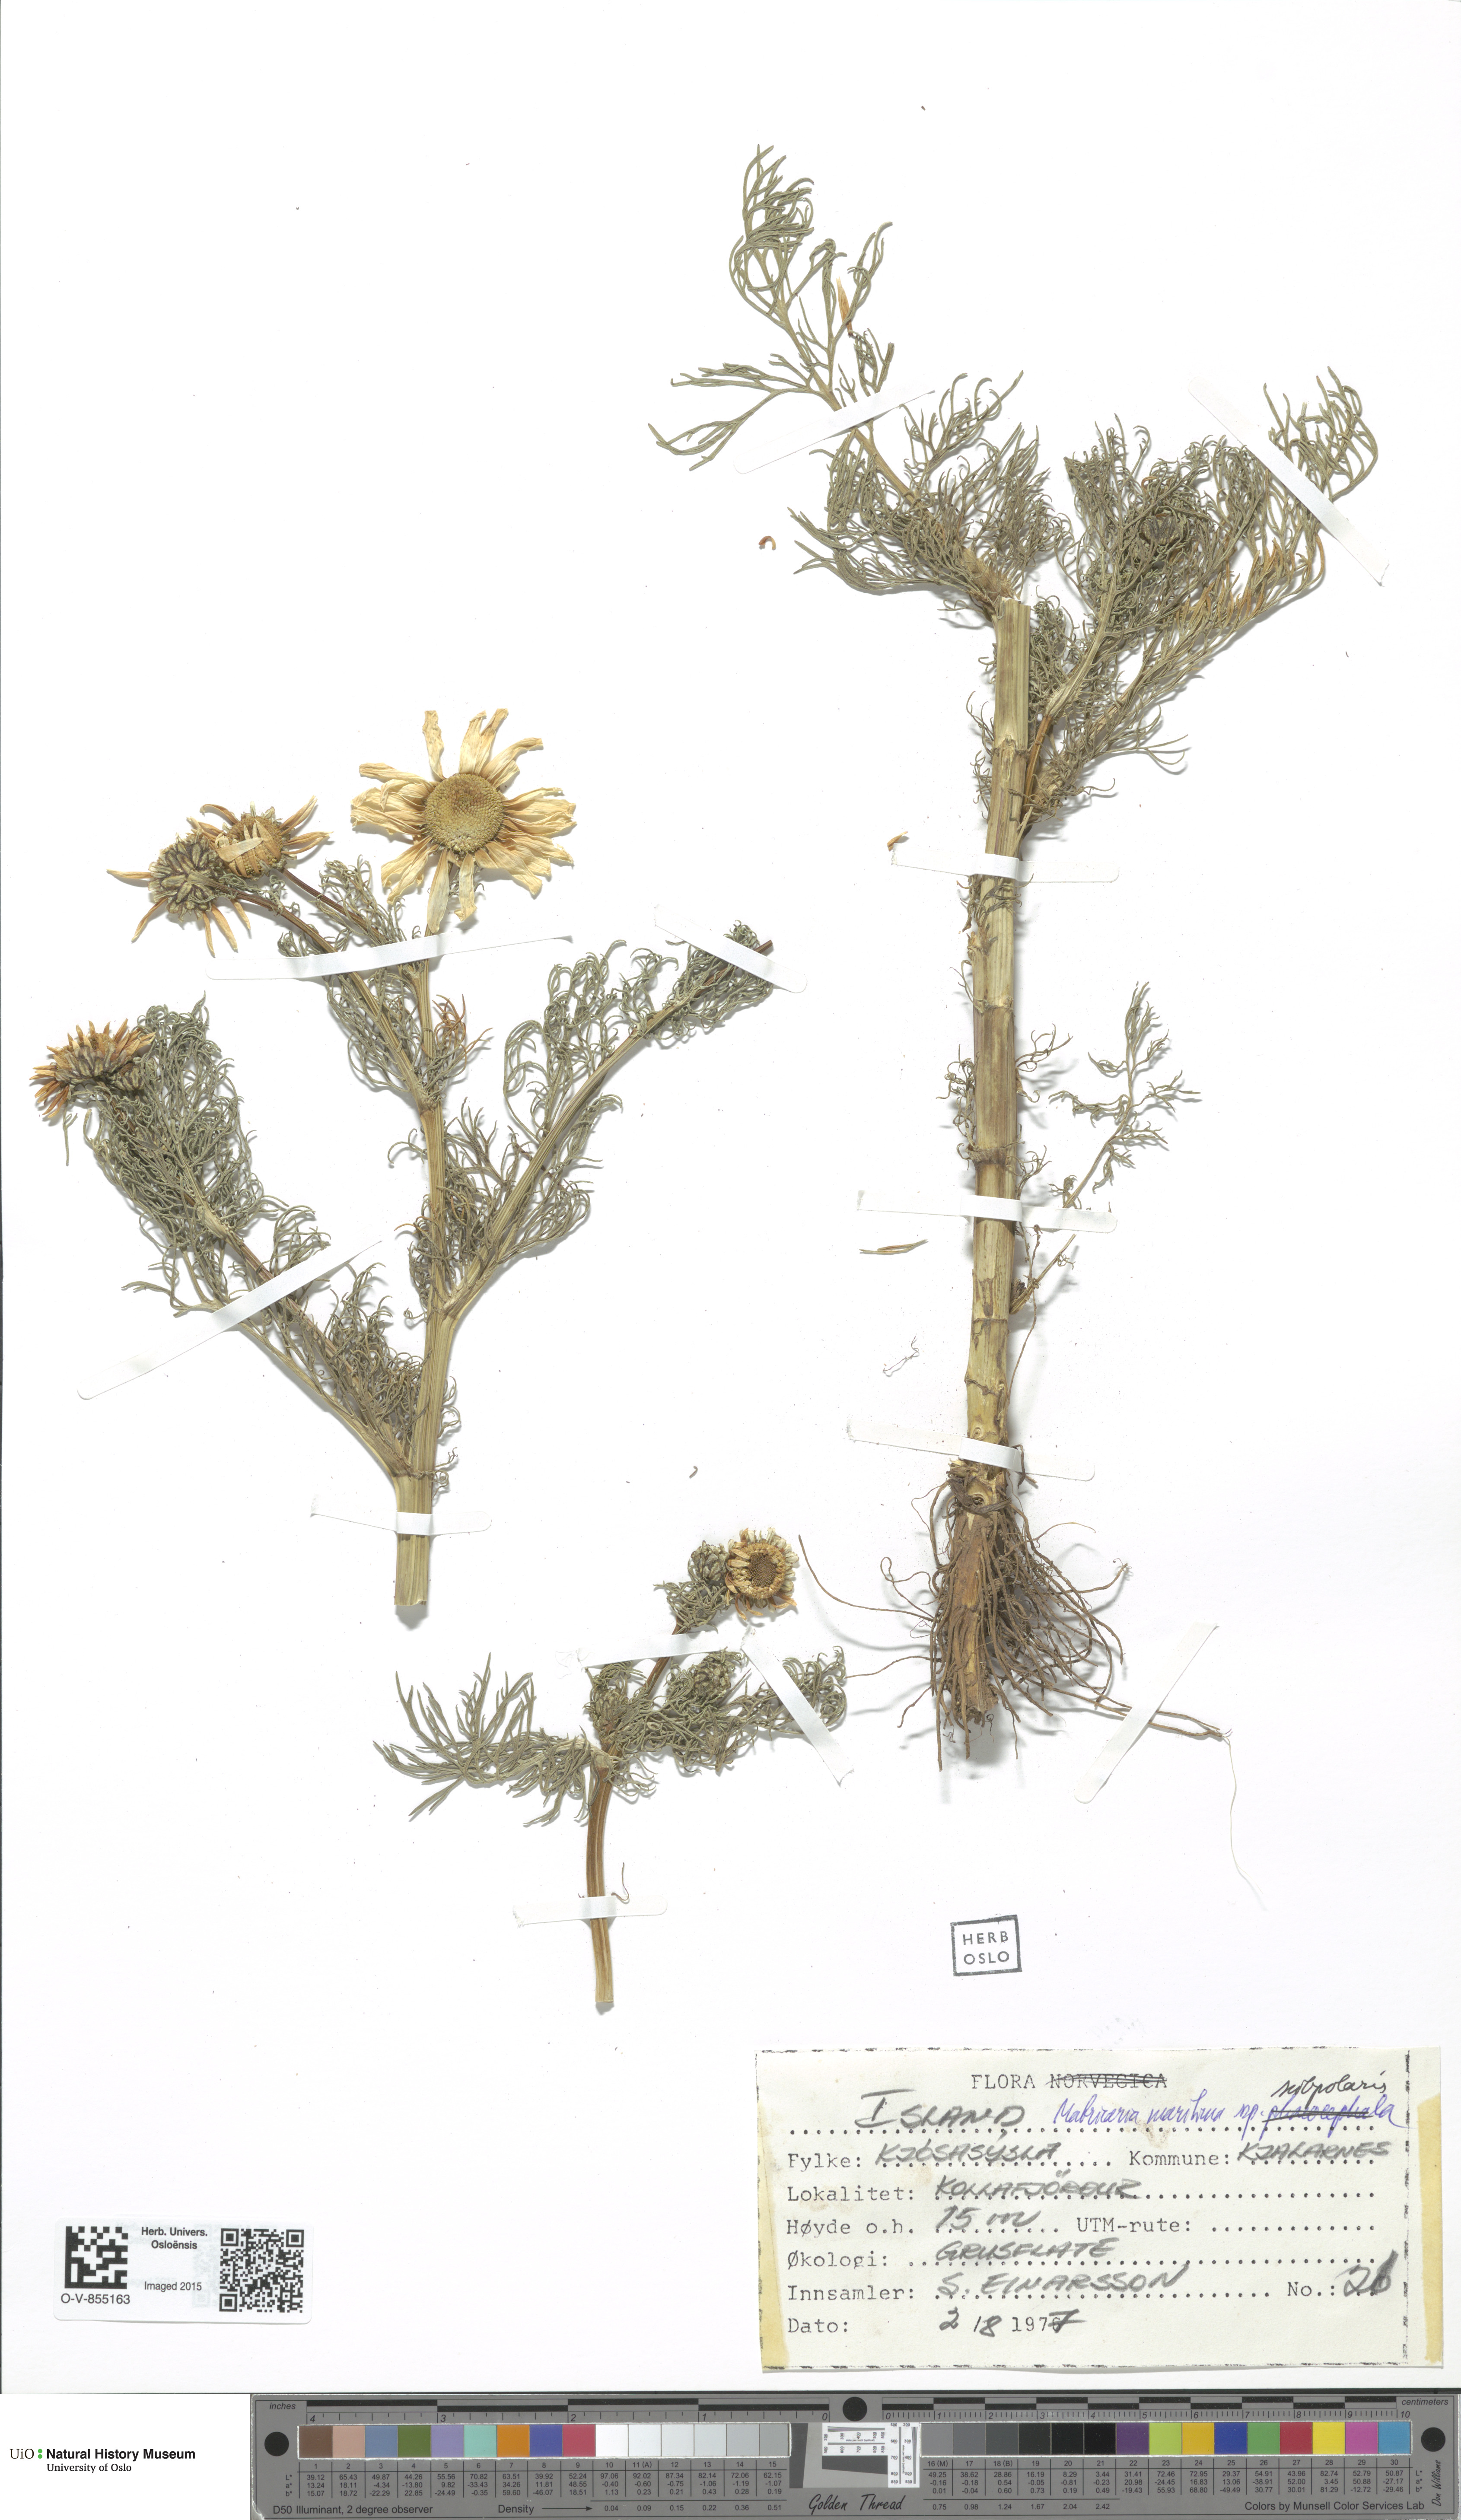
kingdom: Plantae
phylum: Tracheophyta
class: Magnoliopsida
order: Asterales
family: Asteraceae
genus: Tripleurospermum
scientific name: Tripleurospermum subpolare
